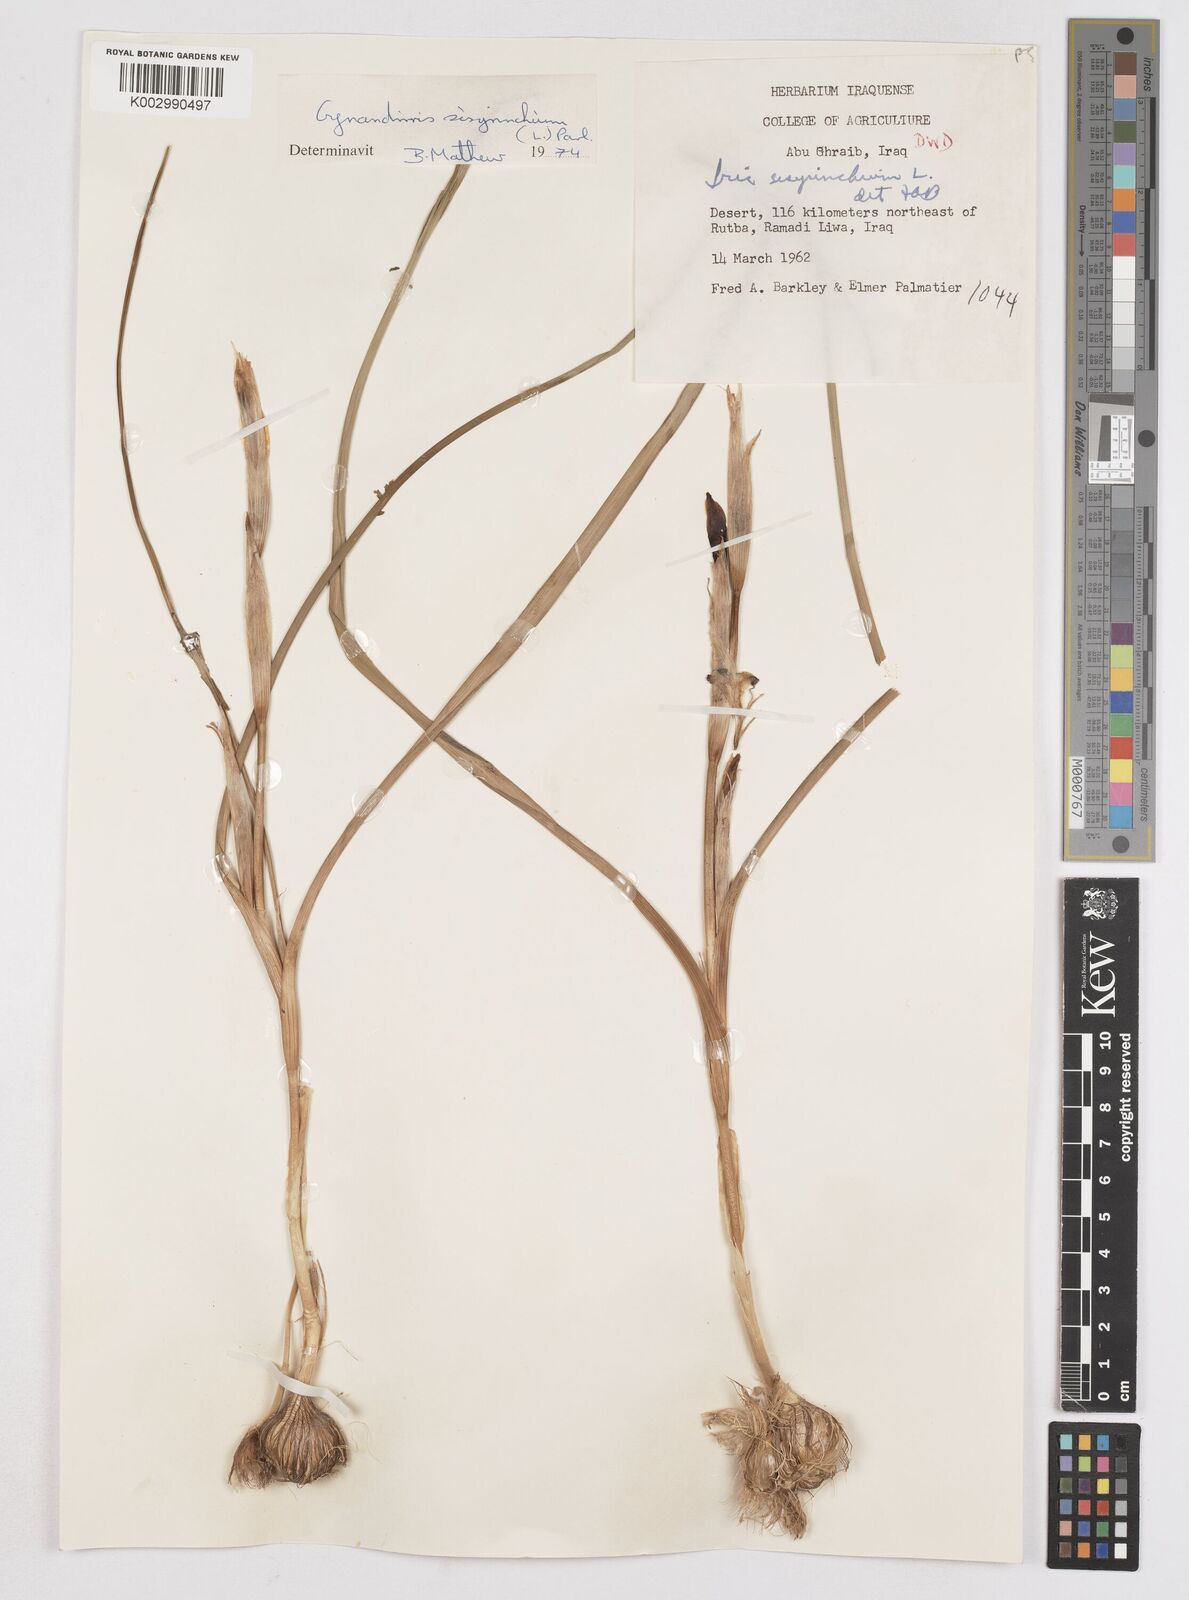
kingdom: Plantae
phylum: Tracheophyta
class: Liliopsida
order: Asparagales
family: Iridaceae
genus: Moraea
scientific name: Moraea sisyrinchium
